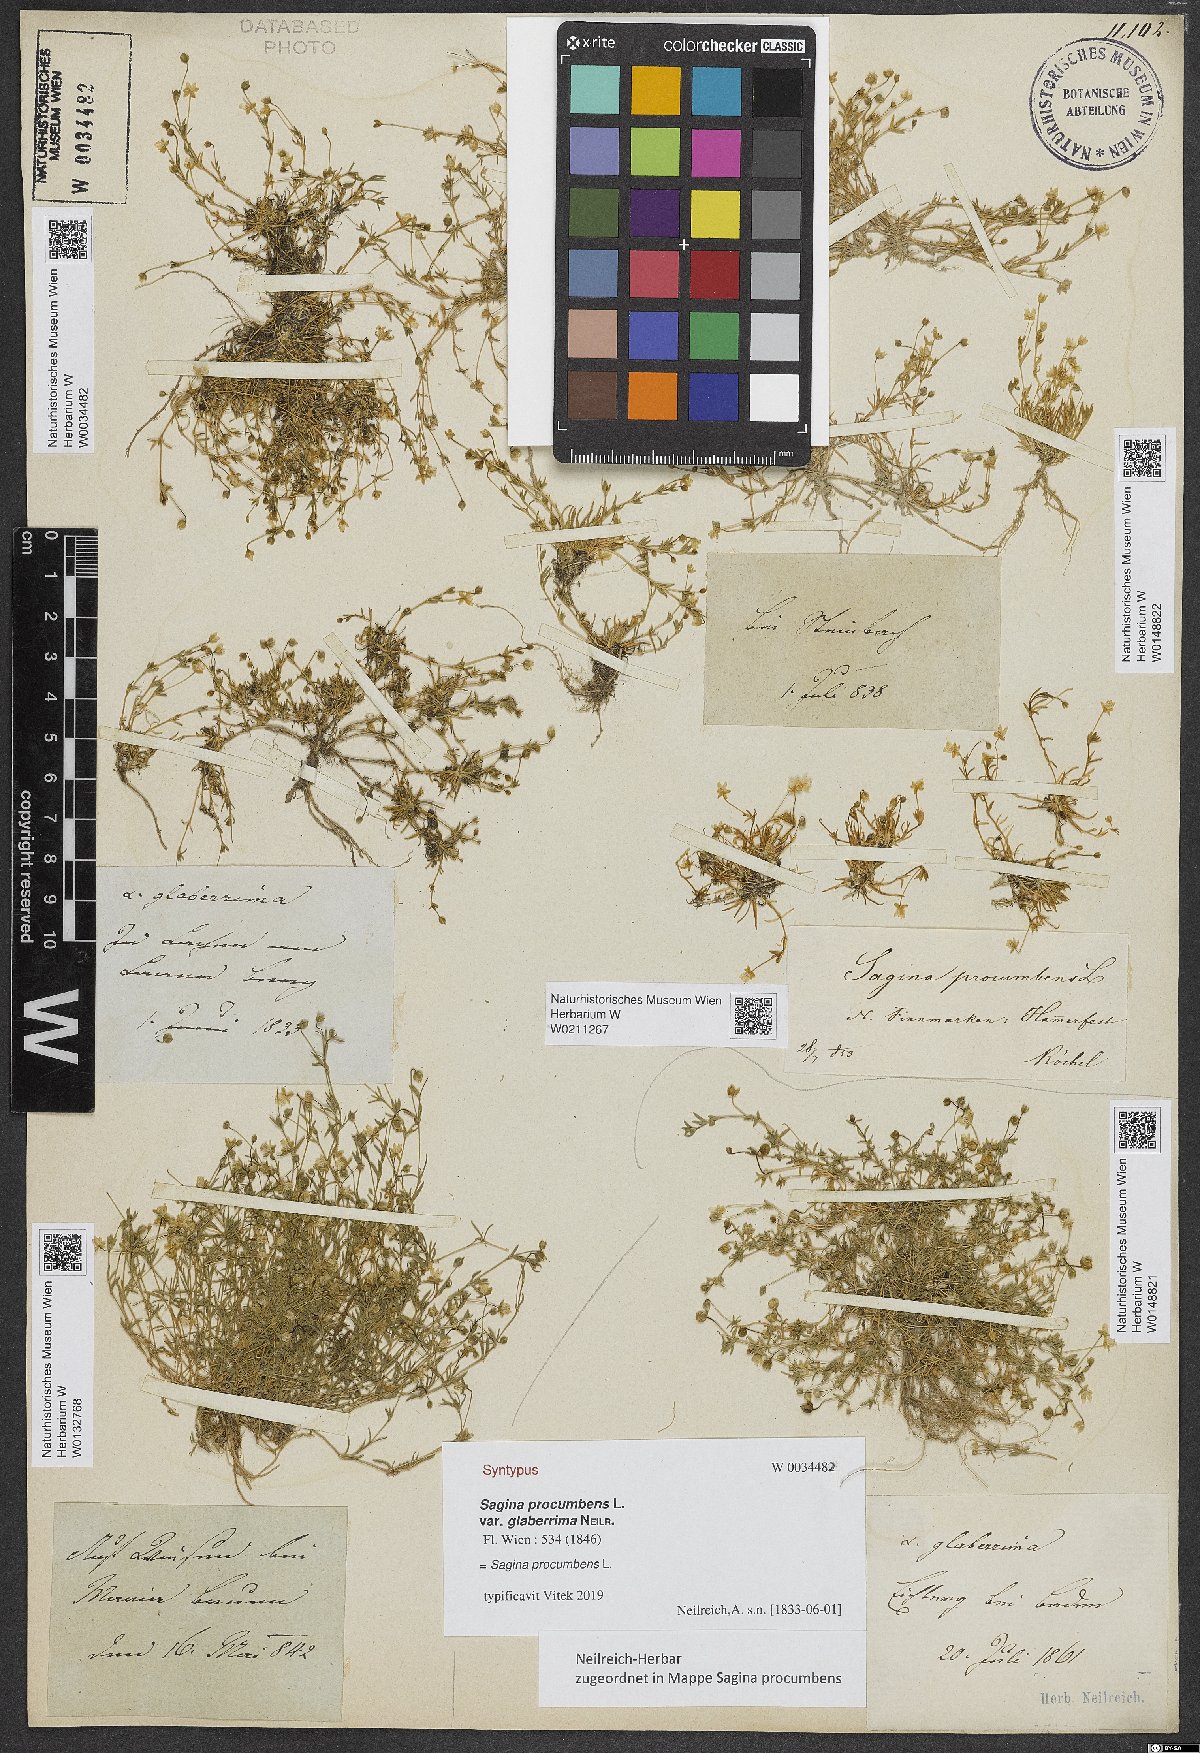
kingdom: Plantae
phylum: Tracheophyta
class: Magnoliopsida
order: Caryophyllales
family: Caryophyllaceae
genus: Sagina
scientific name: Sagina procumbens
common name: Procumbent pearlwort
